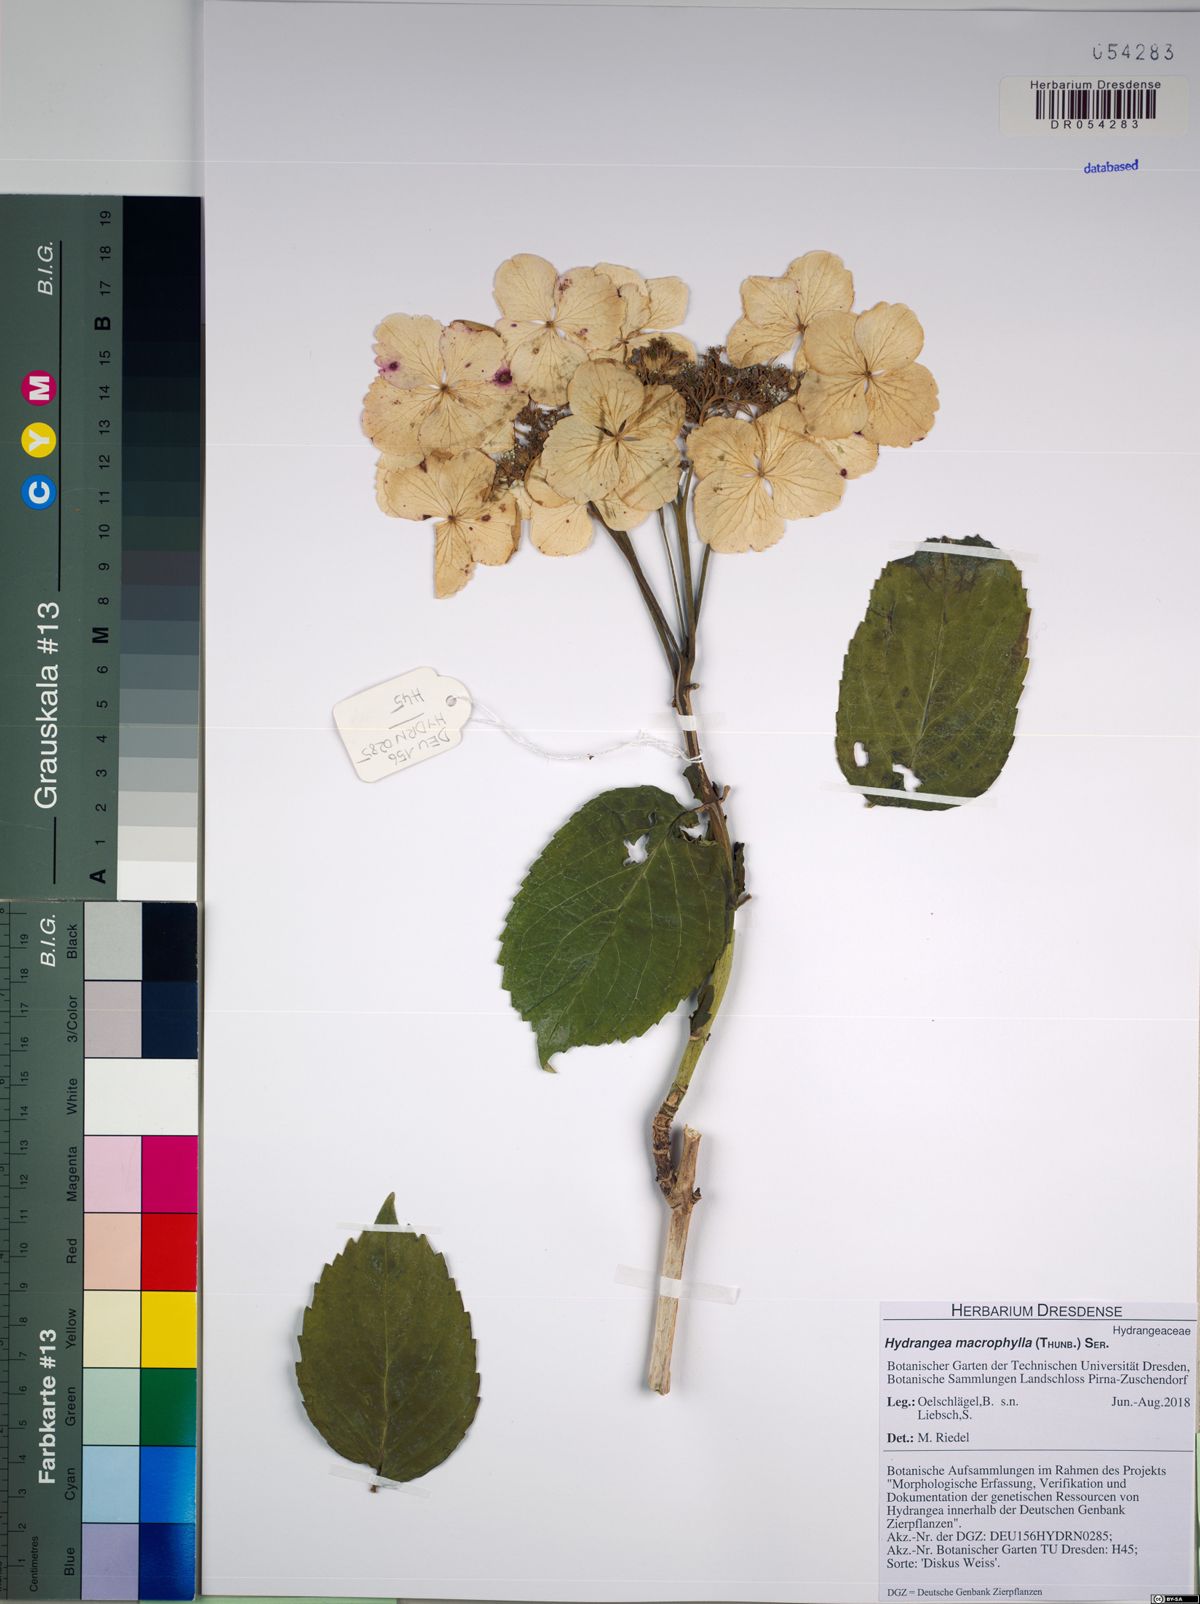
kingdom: Plantae
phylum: Tracheophyta
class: Magnoliopsida
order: Cornales
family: Hydrangeaceae
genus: Hydrangea
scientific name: Hydrangea macrophylla
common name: Hydrangea
